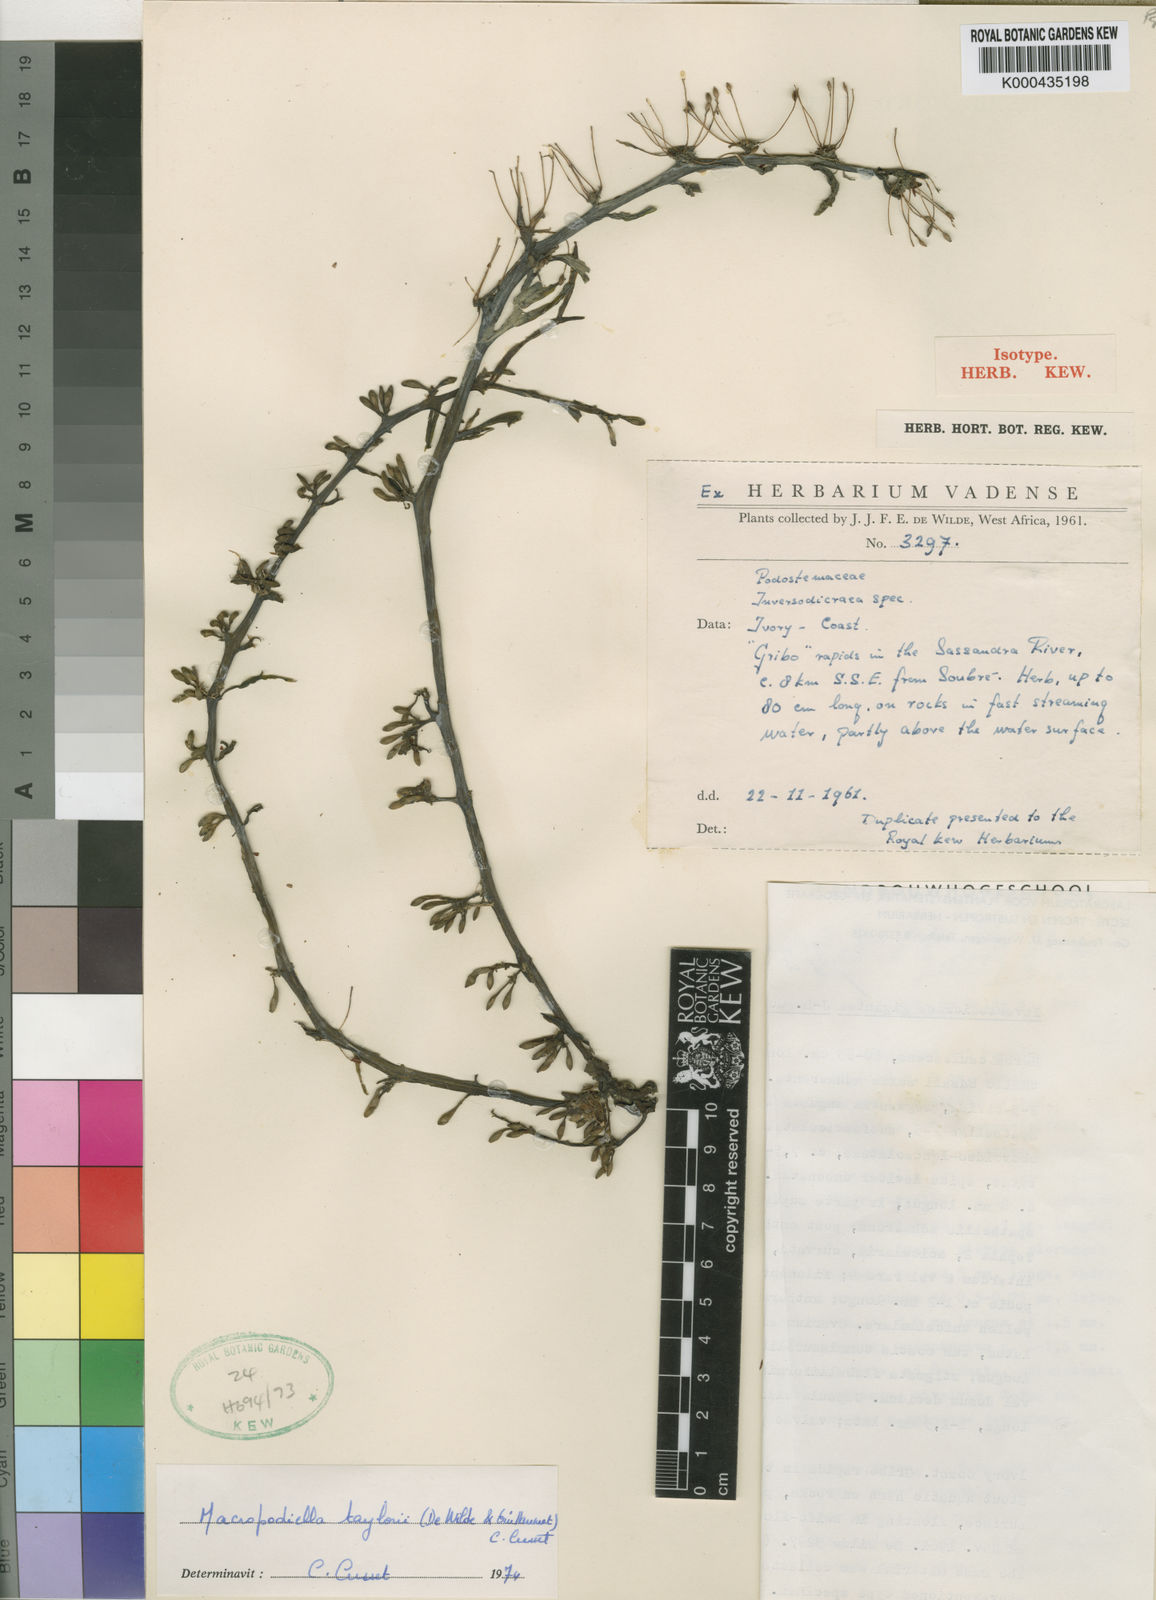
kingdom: Plantae
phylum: Tracheophyta
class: Magnoliopsida
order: Malpighiales
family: Podostemaceae
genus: Macropodiella
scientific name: Macropodiella
